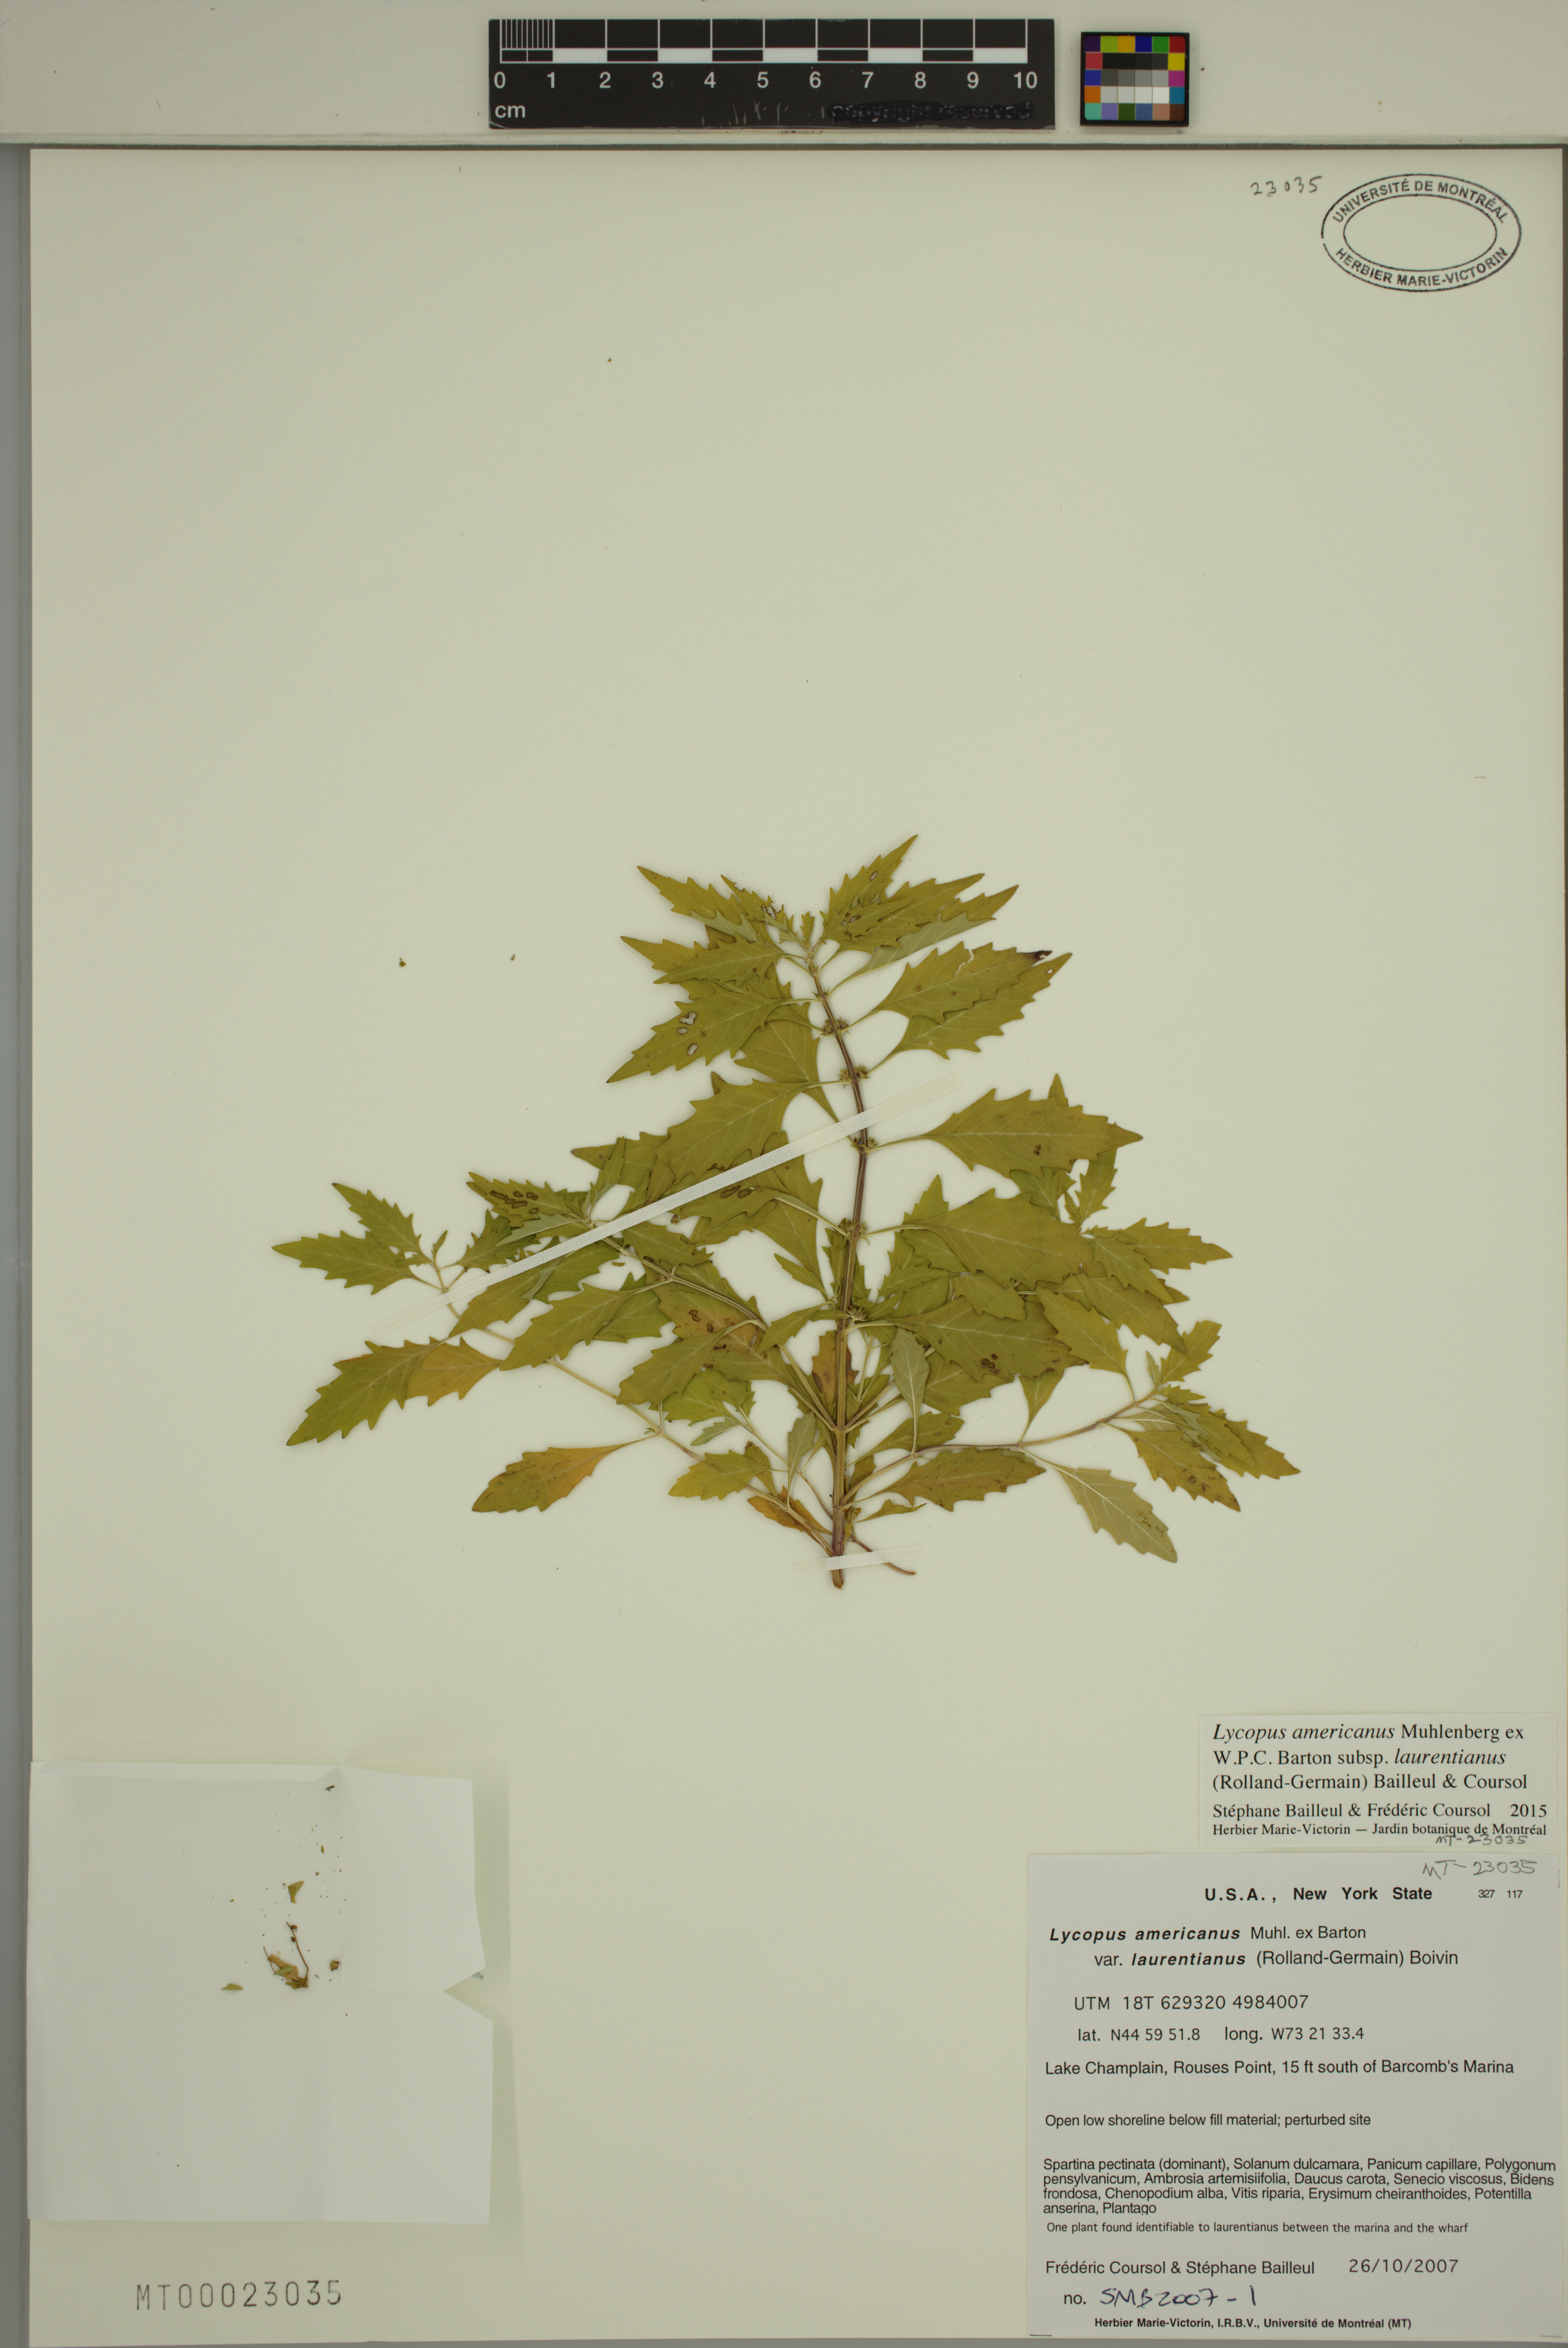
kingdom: Plantae
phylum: Tracheophyta
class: Magnoliopsida
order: Lamiales
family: Lamiaceae
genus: Lycopus
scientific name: Lycopus americanus
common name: American bugleweed
